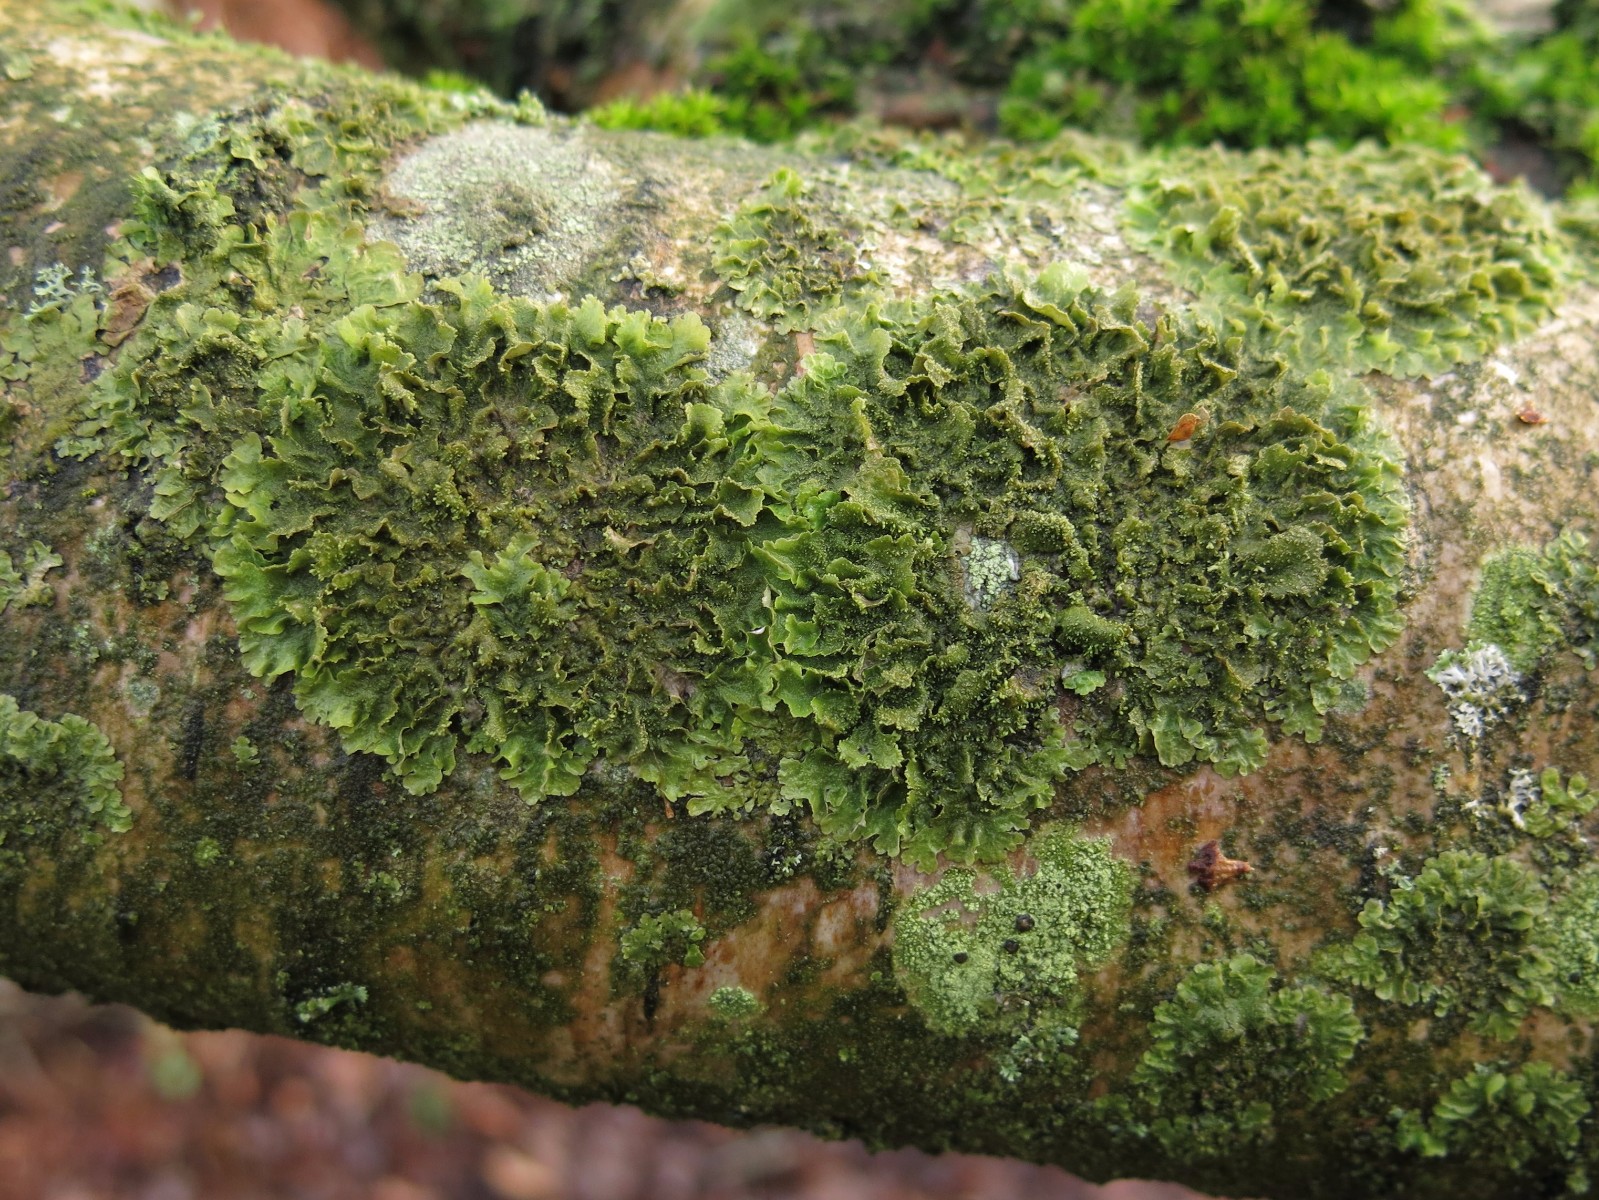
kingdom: Fungi
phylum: Ascomycota
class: Lecanoromycetes
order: Lecanorales
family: Parmeliaceae
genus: Melanohalea
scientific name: Melanohalea exasperatula
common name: kølle-skållav
